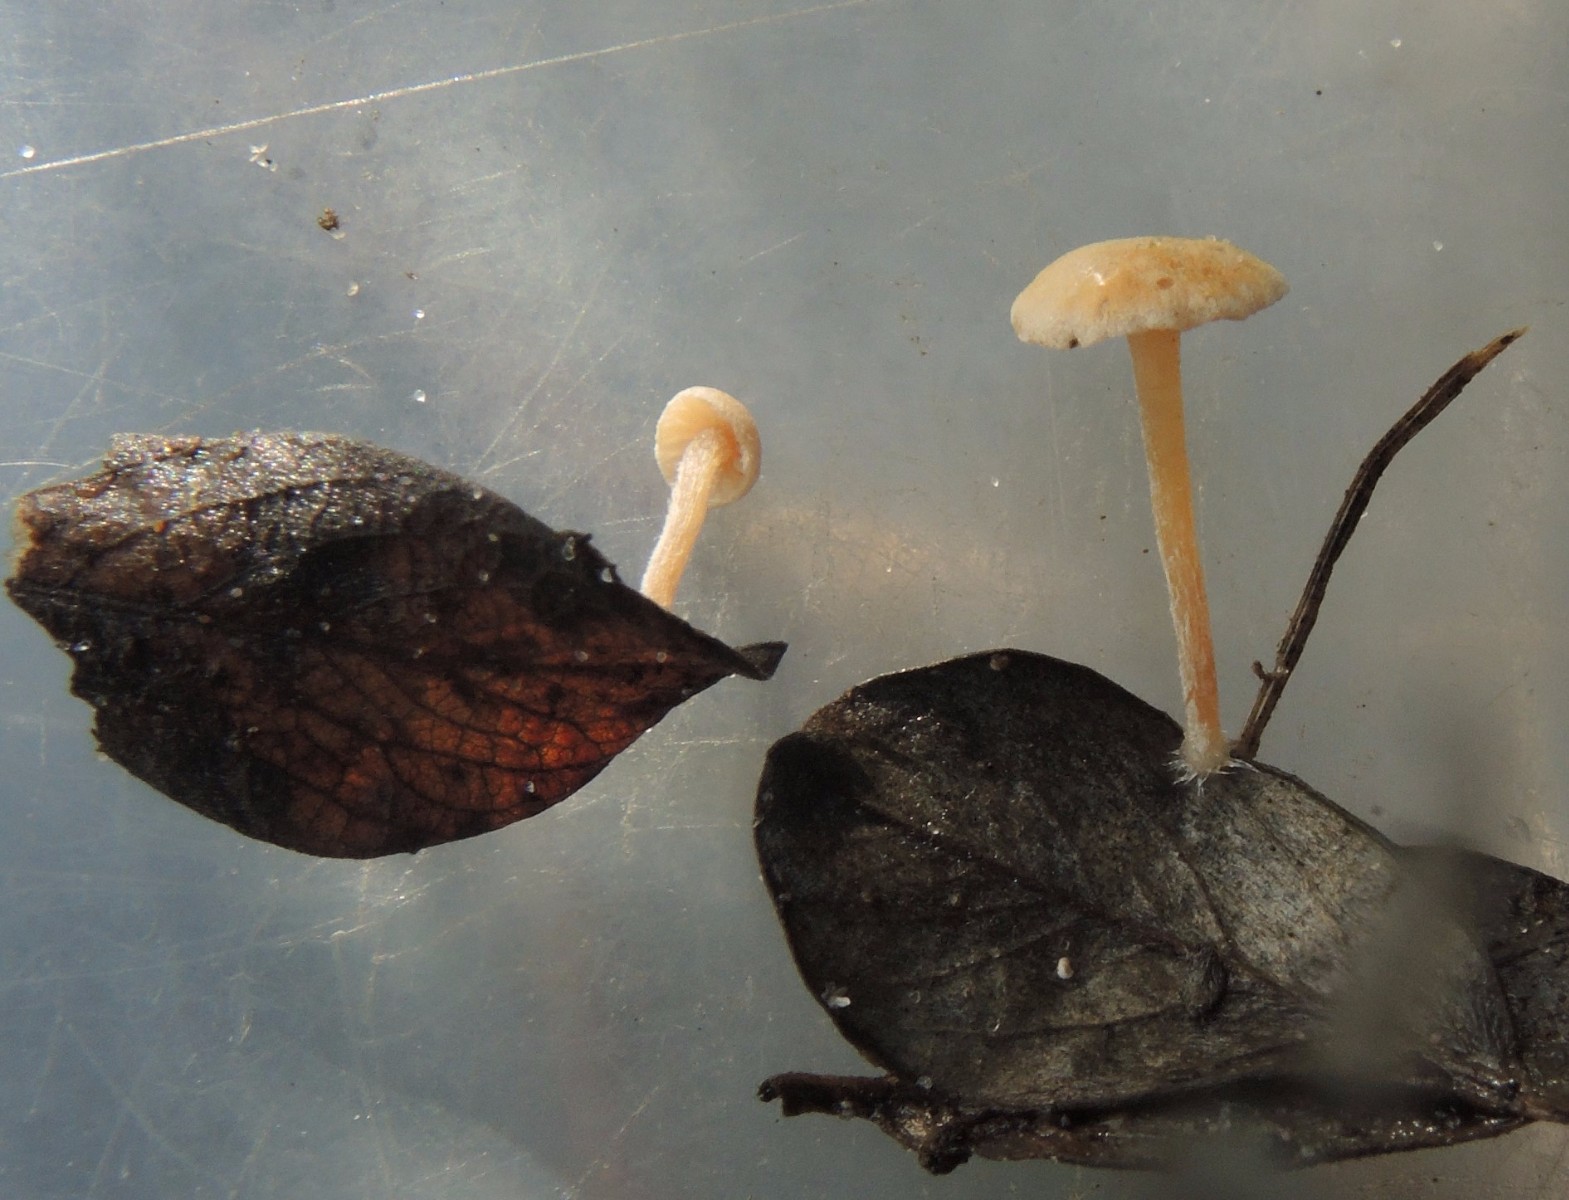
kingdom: Fungi
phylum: Basidiomycota
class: Agaricomycetes
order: Agaricales
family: Tubariaceae
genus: Flammulaster
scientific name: Flammulaster carpophilus
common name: bøge-grynskælhat
